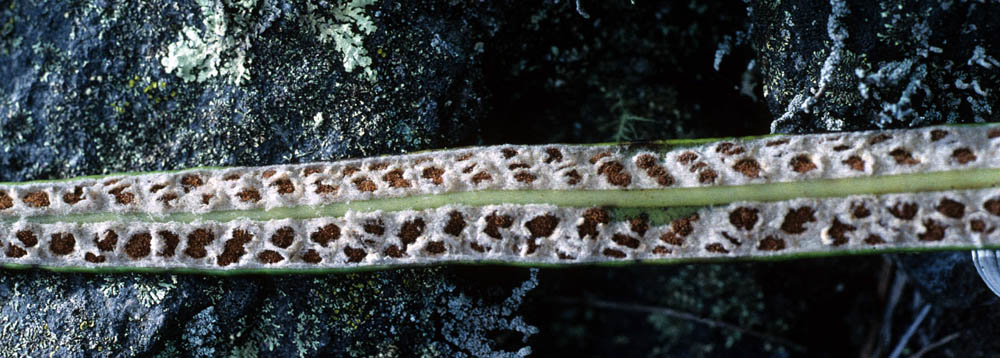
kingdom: Plantae
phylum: Tracheophyta
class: Polypodiopsida
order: Polypodiales
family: Polypodiaceae
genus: Niphidium
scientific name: Niphidium longifolium
